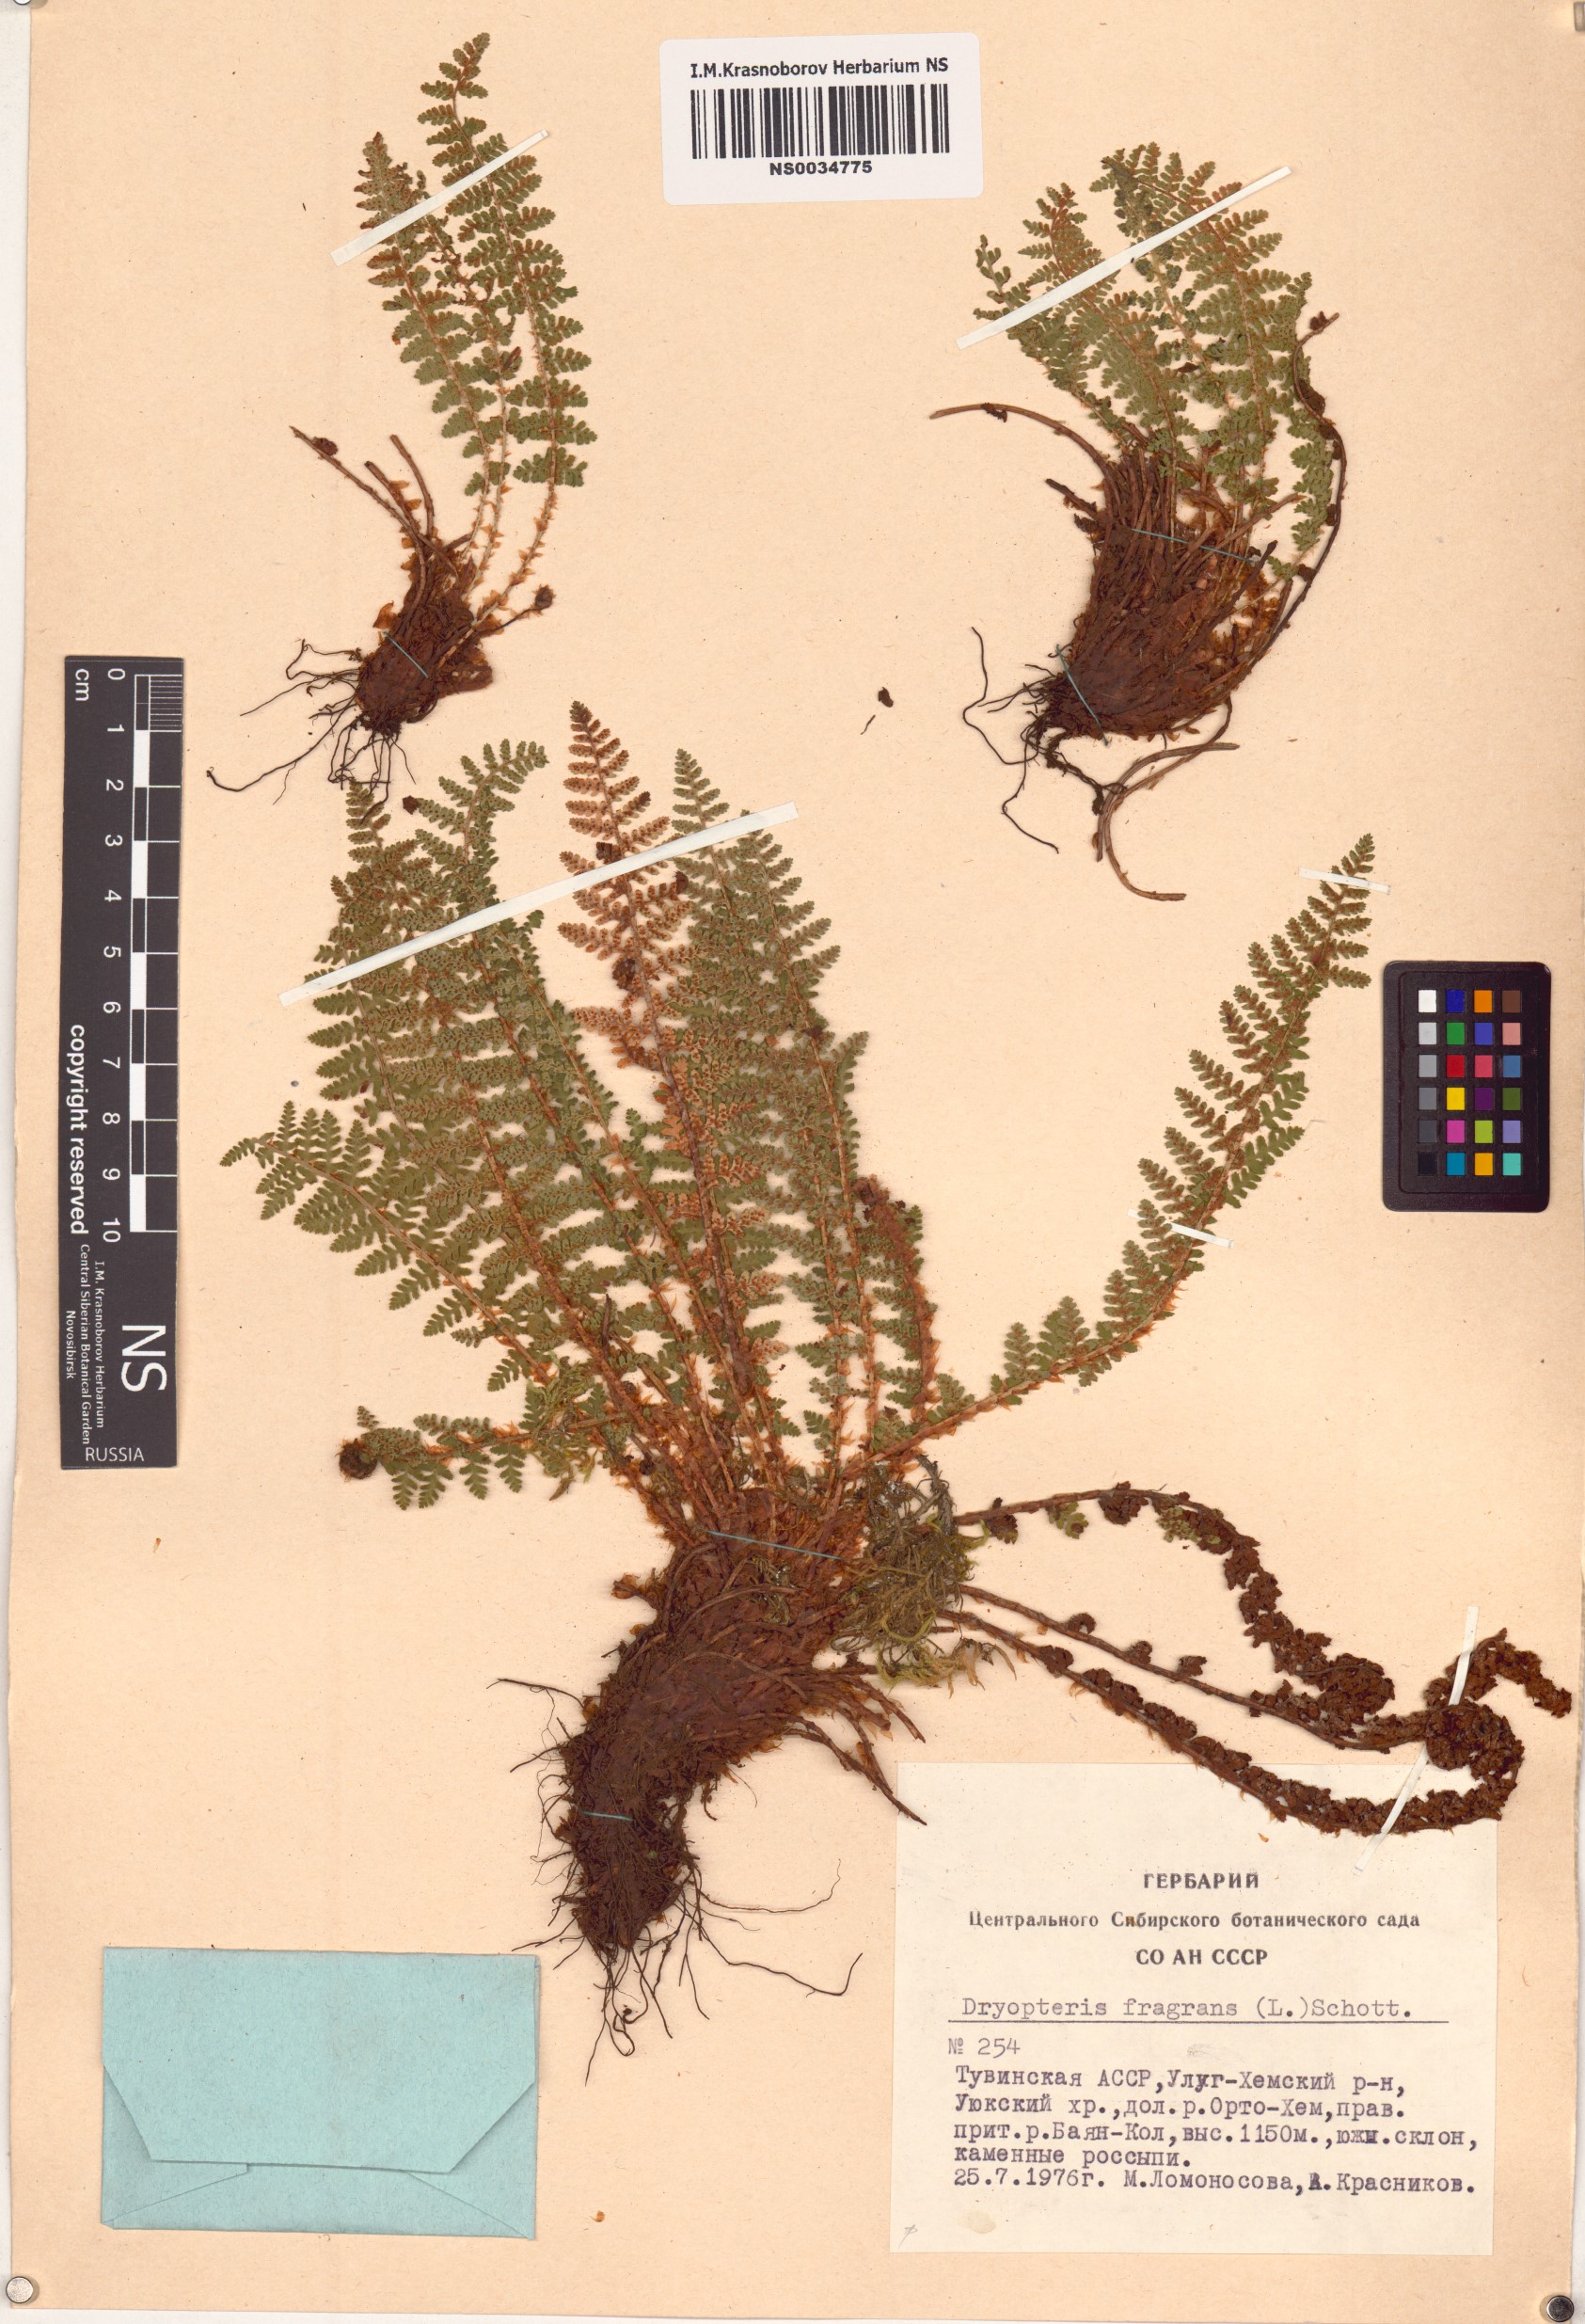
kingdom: Plantae
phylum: Tracheophyta
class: Polypodiopsida
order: Polypodiales
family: Dryopteridaceae
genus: Dryopteris
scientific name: Dryopteris fragrans
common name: Fragrant wood fern
